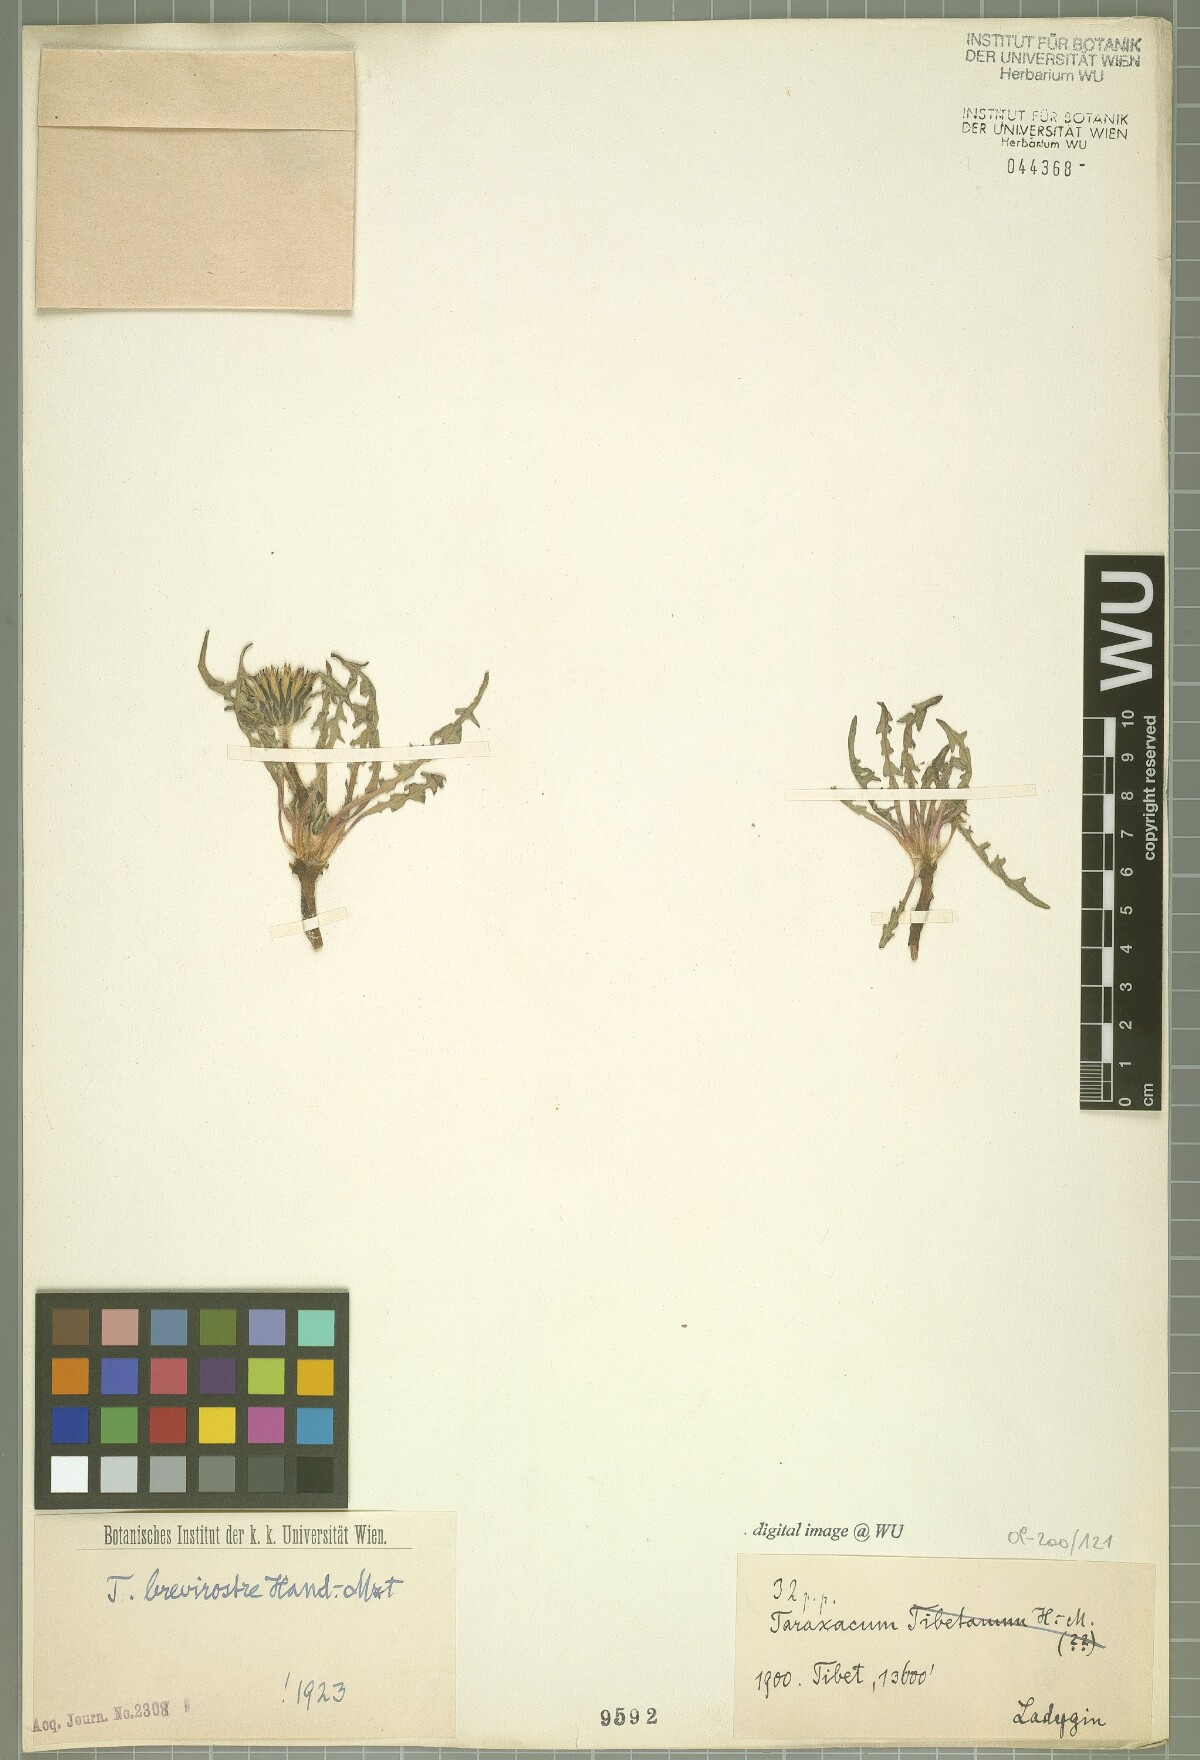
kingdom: Plantae
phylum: Tracheophyta
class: Magnoliopsida
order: Asterales
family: Asteraceae
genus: Taraxacum
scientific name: Taraxacum brevirostre
